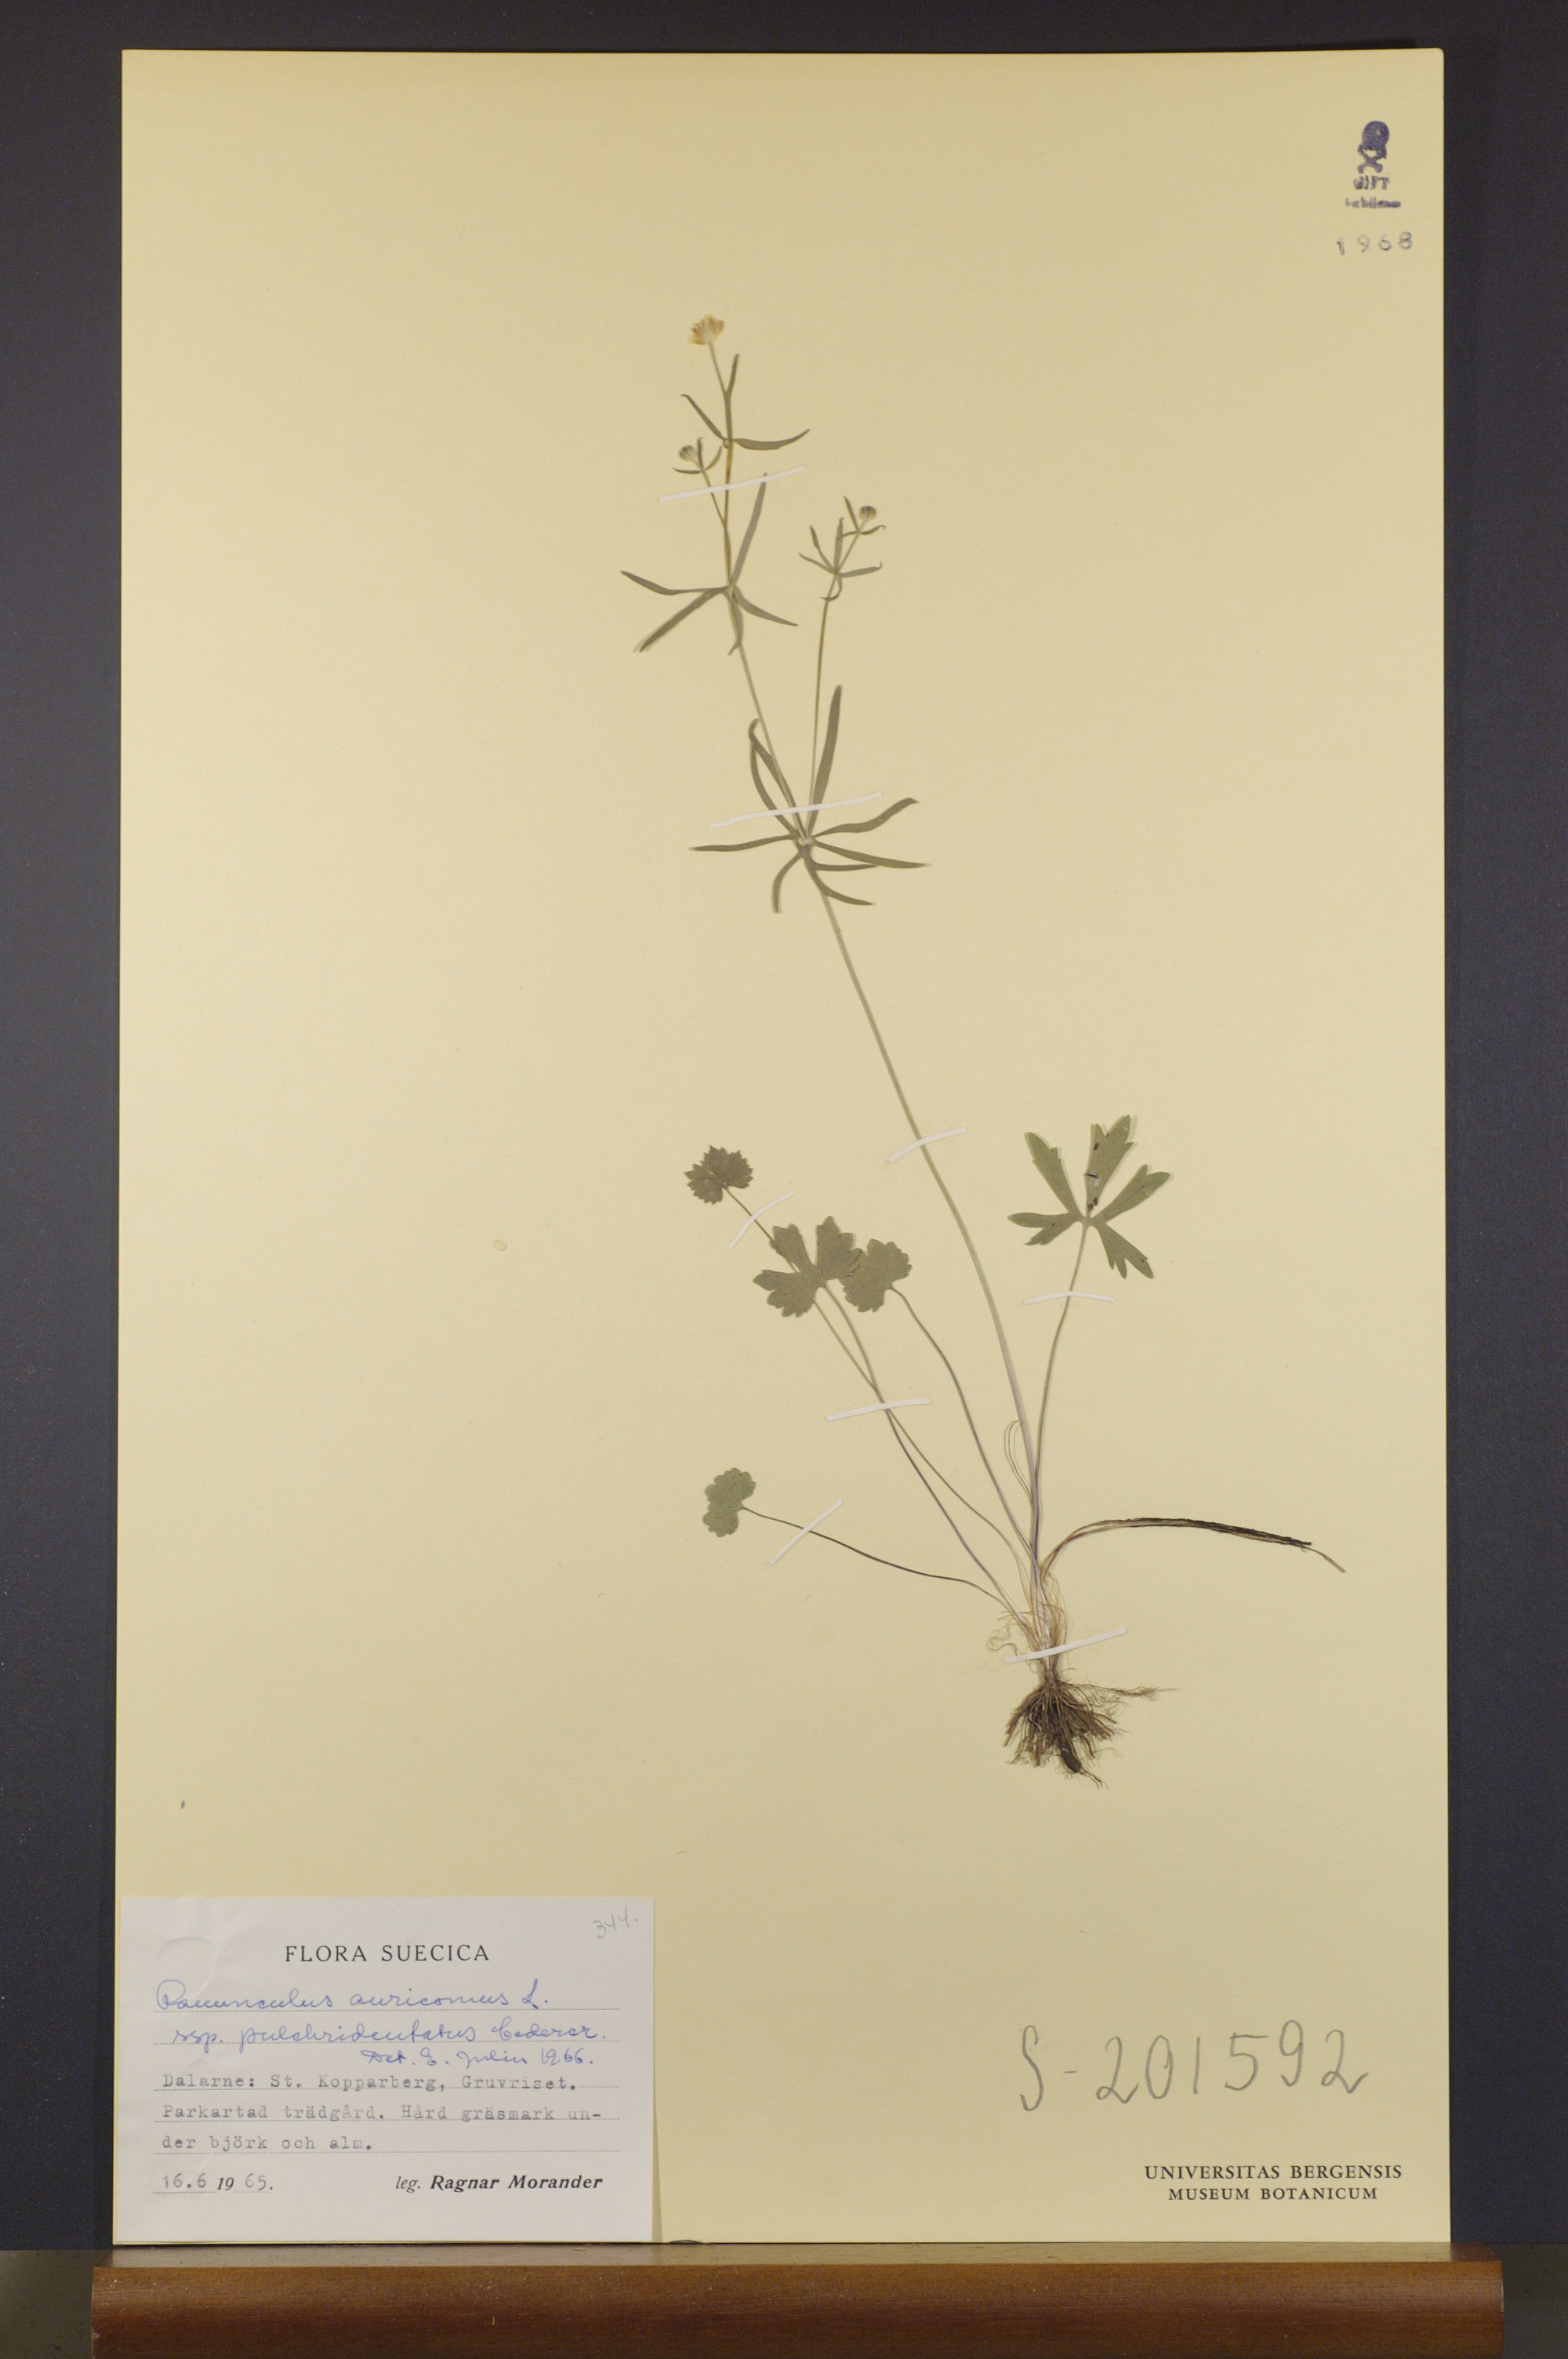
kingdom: Plantae
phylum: Tracheophyta
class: Magnoliopsida
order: Ranunculales
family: Ranunculaceae
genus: Ranunculus
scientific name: Ranunculus pulchridentatus
